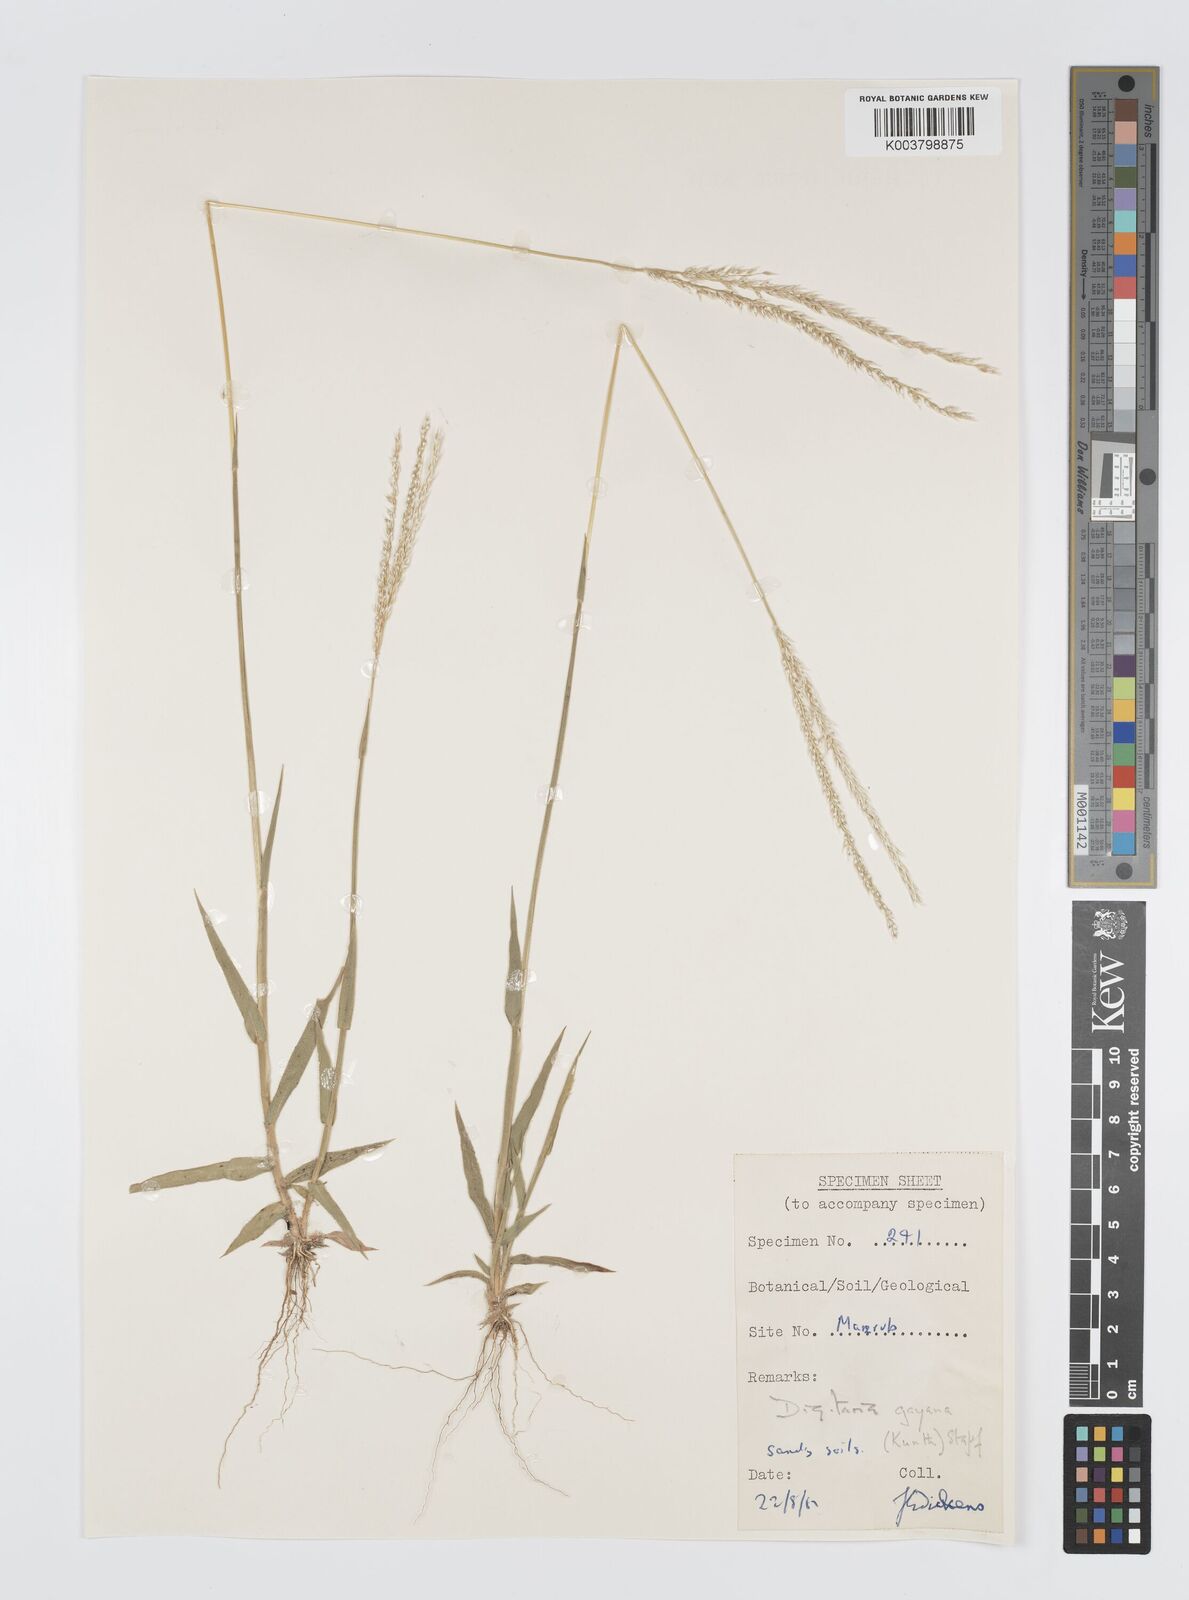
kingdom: Plantae
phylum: Tracheophyta
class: Liliopsida
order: Poales
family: Poaceae
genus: Digitaria
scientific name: Digitaria gayana
